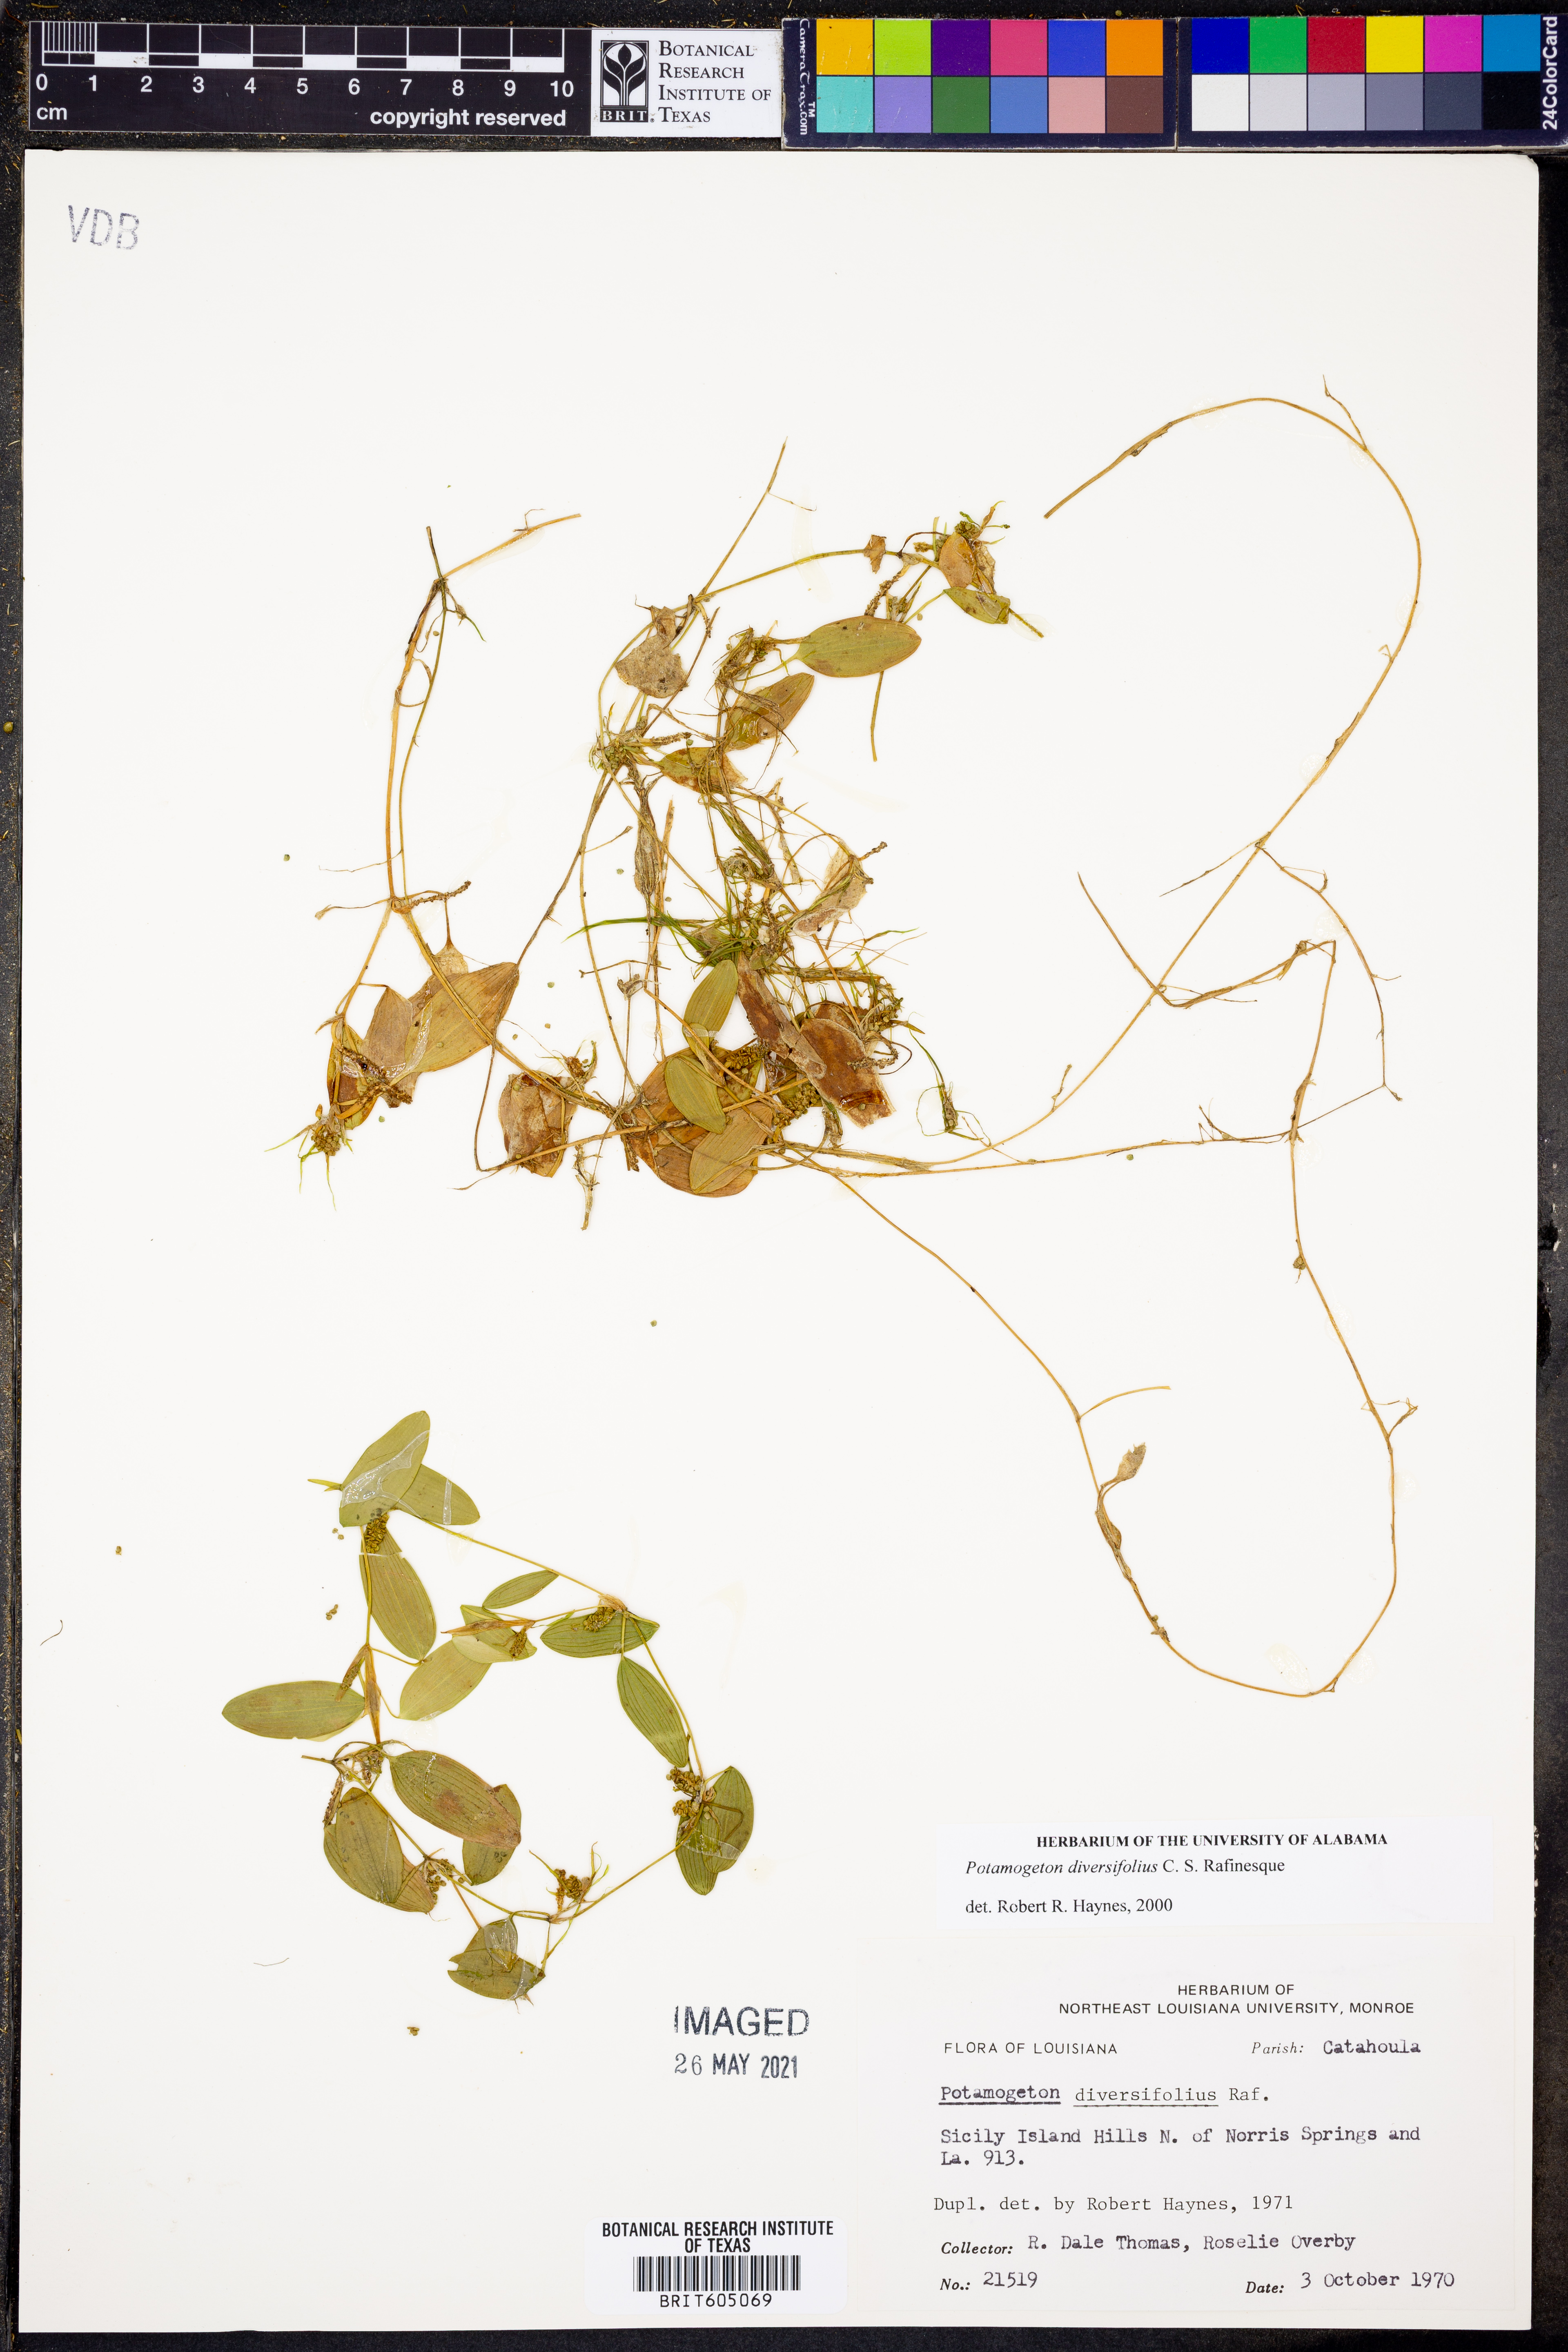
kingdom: Plantae
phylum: Tracheophyta
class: Liliopsida
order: Alismatales
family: Potamogetonaceae
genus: Potamogeton
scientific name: Potamogeton diversifolius
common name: Water-thread pondweed
